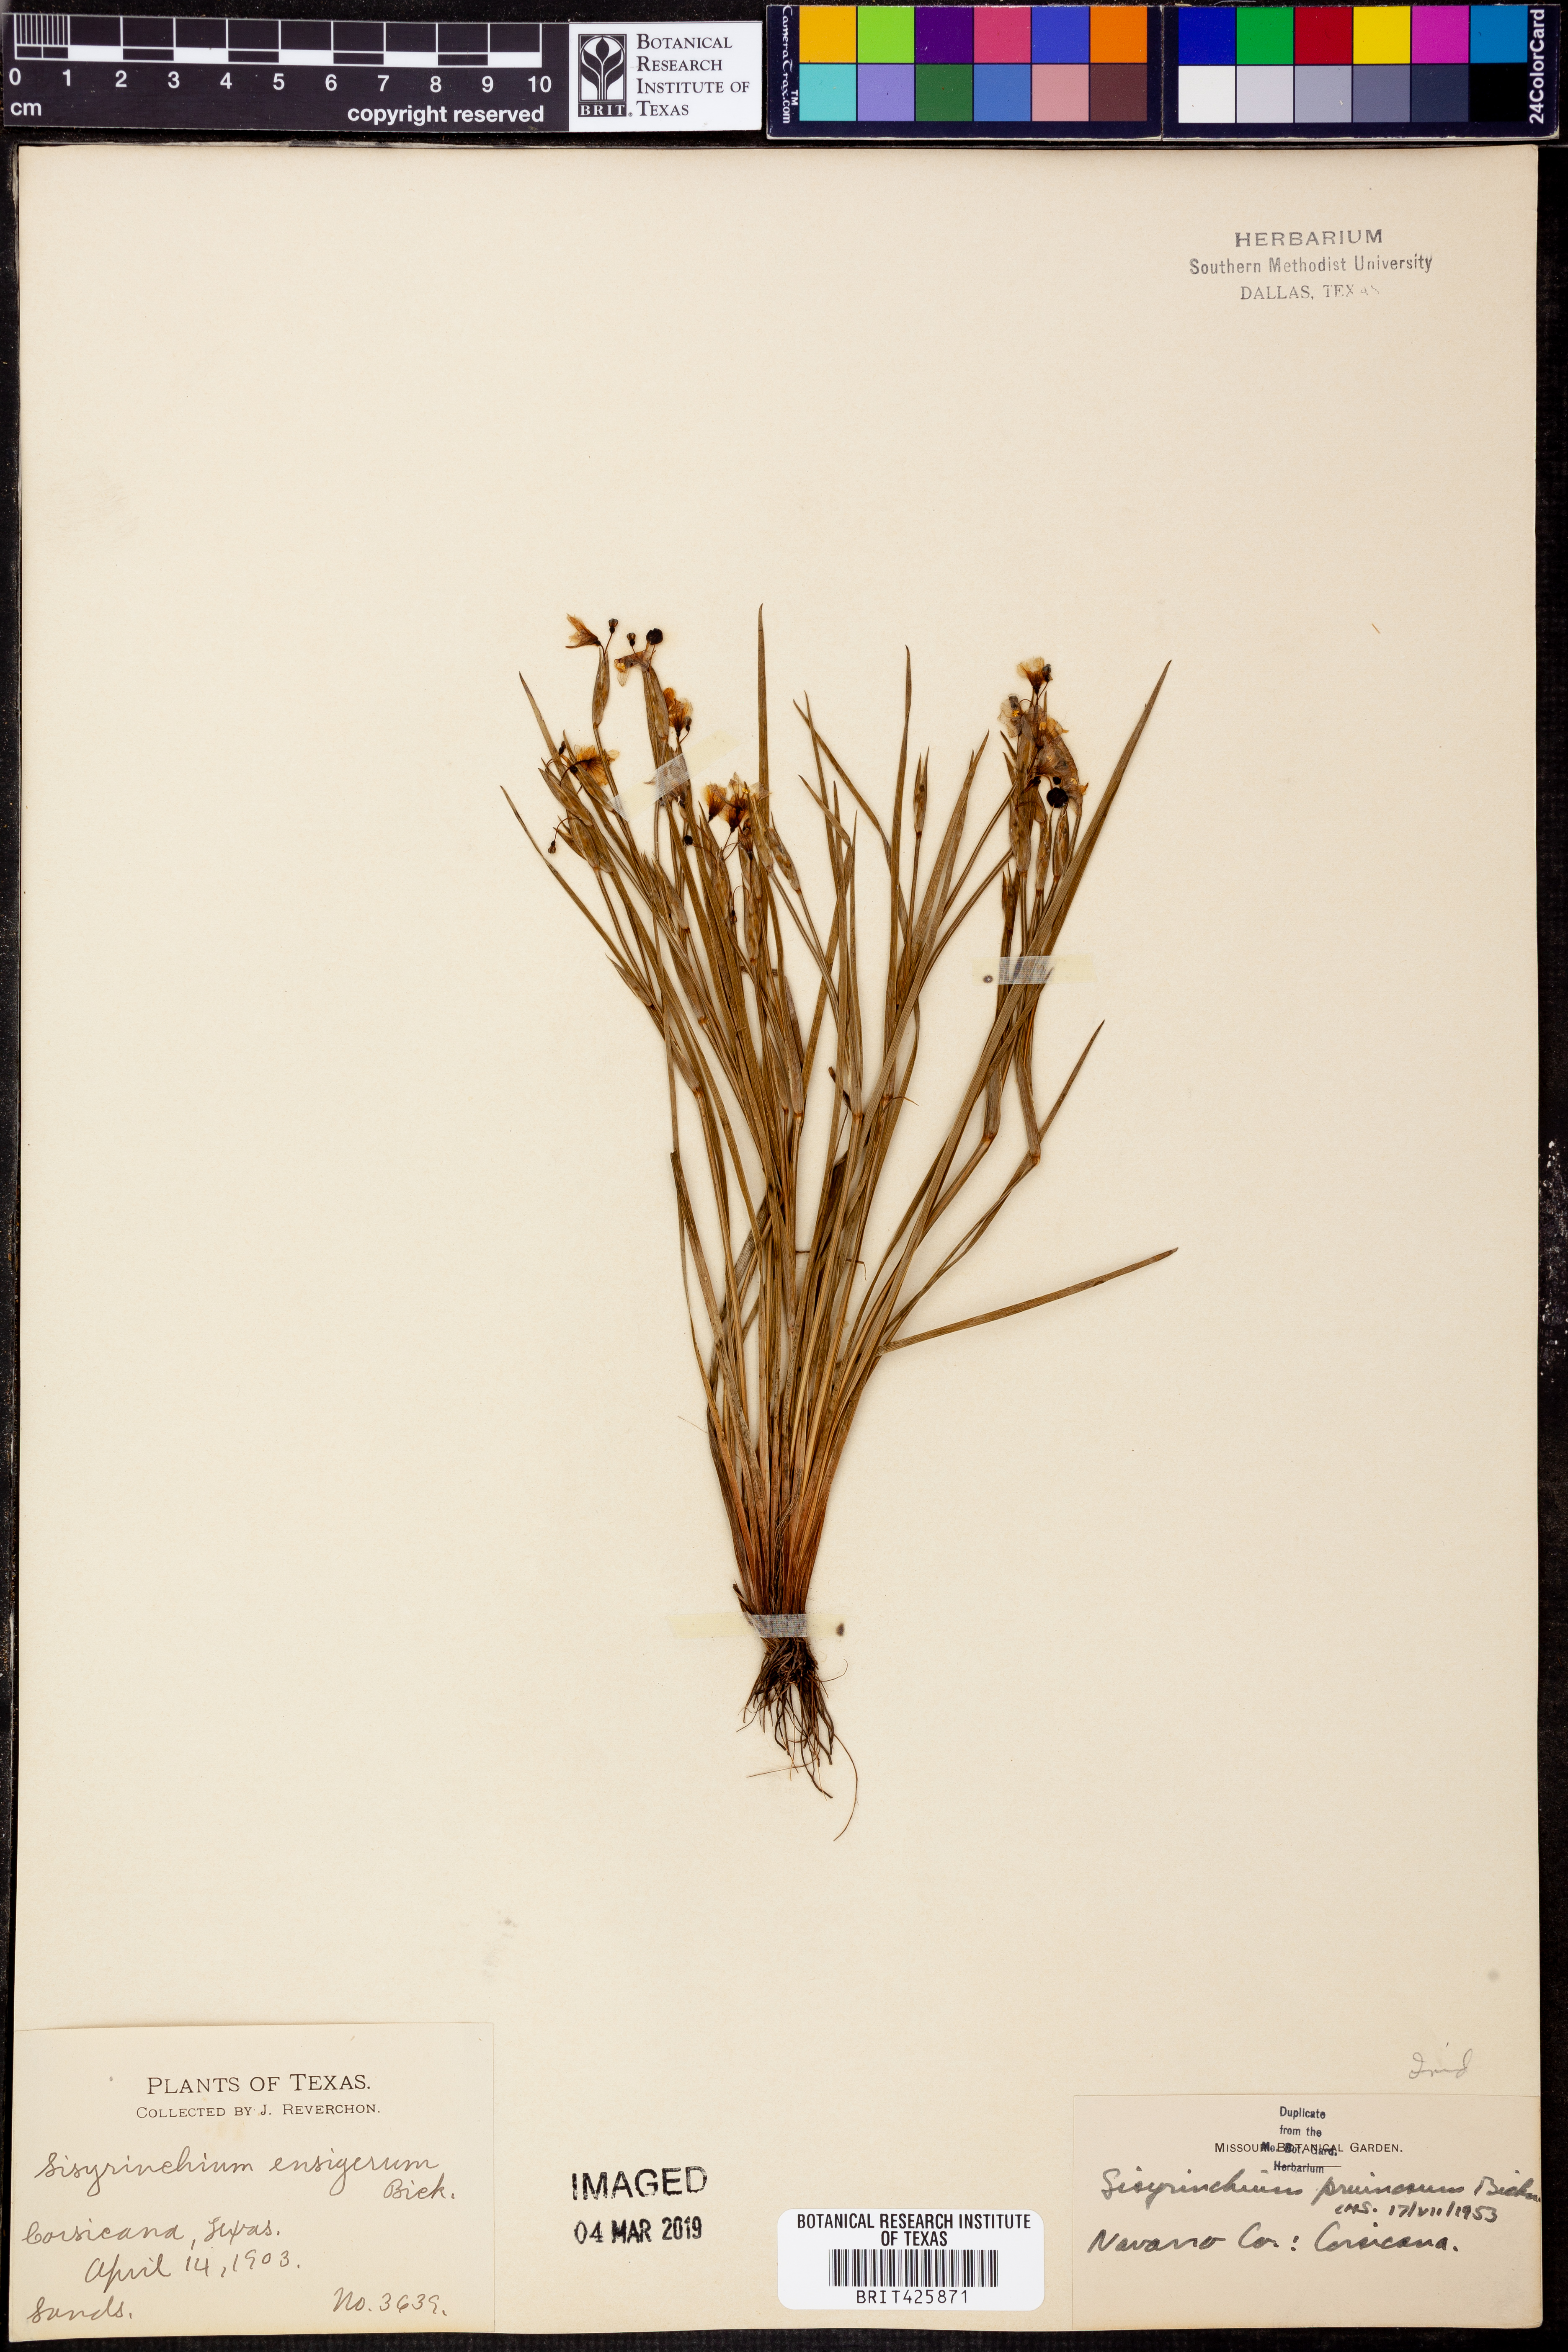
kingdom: Plantae
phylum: Tracheophyta
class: Liliopsida
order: Asparagales
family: Iridaceae
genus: Sisyrinchium
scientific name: Sisyrinchium pruinosum
